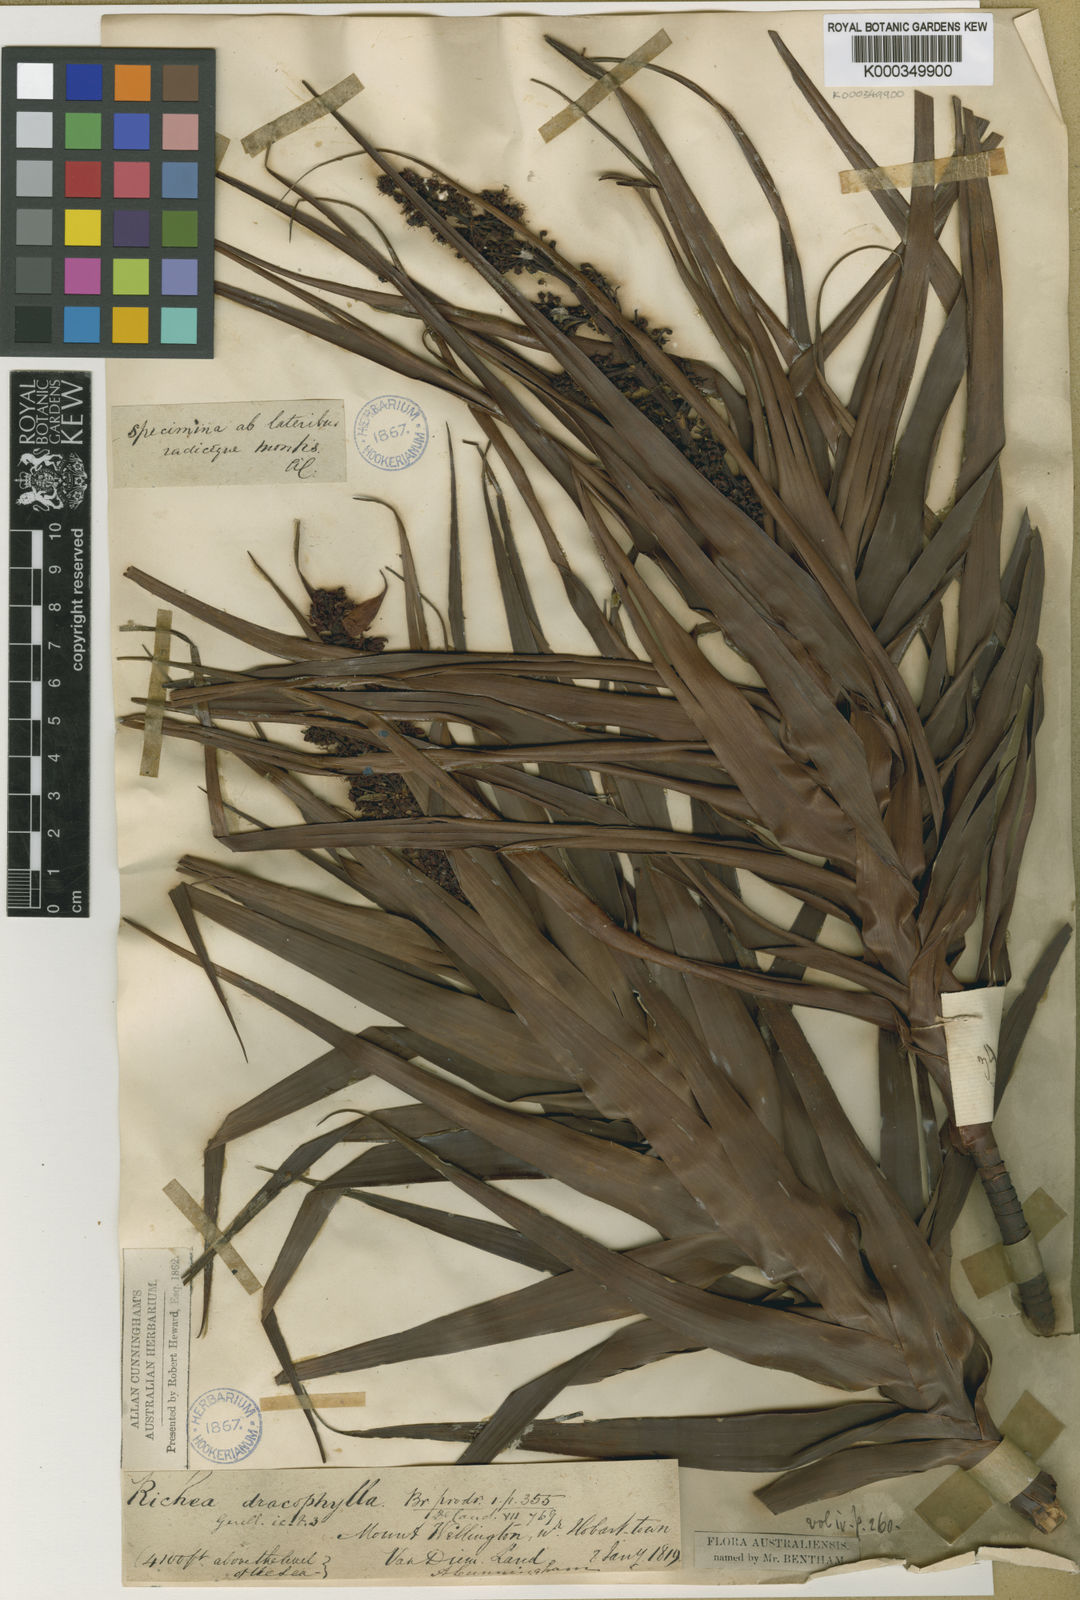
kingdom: Plantae
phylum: Tracheophyta
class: Magnoliopsida
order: Ericales
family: Ericaceae
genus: Dracophyllum
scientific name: Dracophyllum desgrazii
